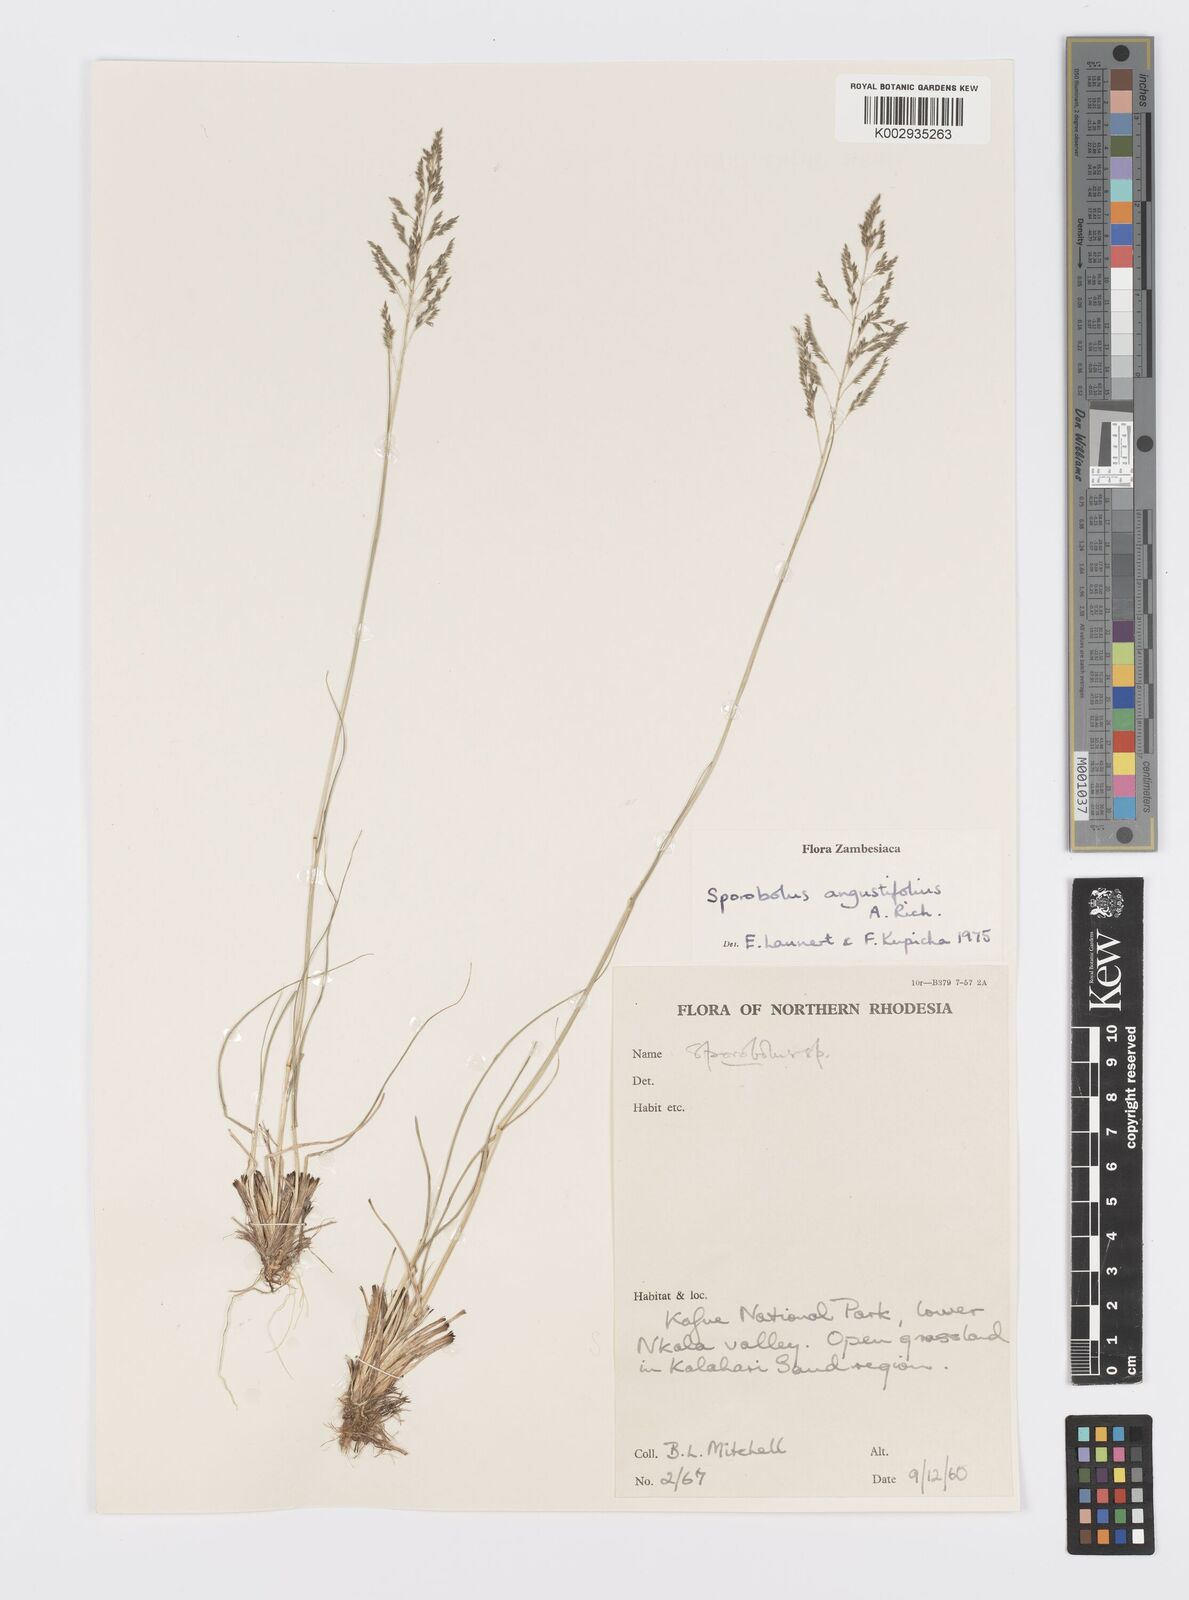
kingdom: Plantae
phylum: Tracheophyta
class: Liliopsida
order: Poales
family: Poaceae
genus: Sporobolus
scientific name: Sporobolus angustifolius
